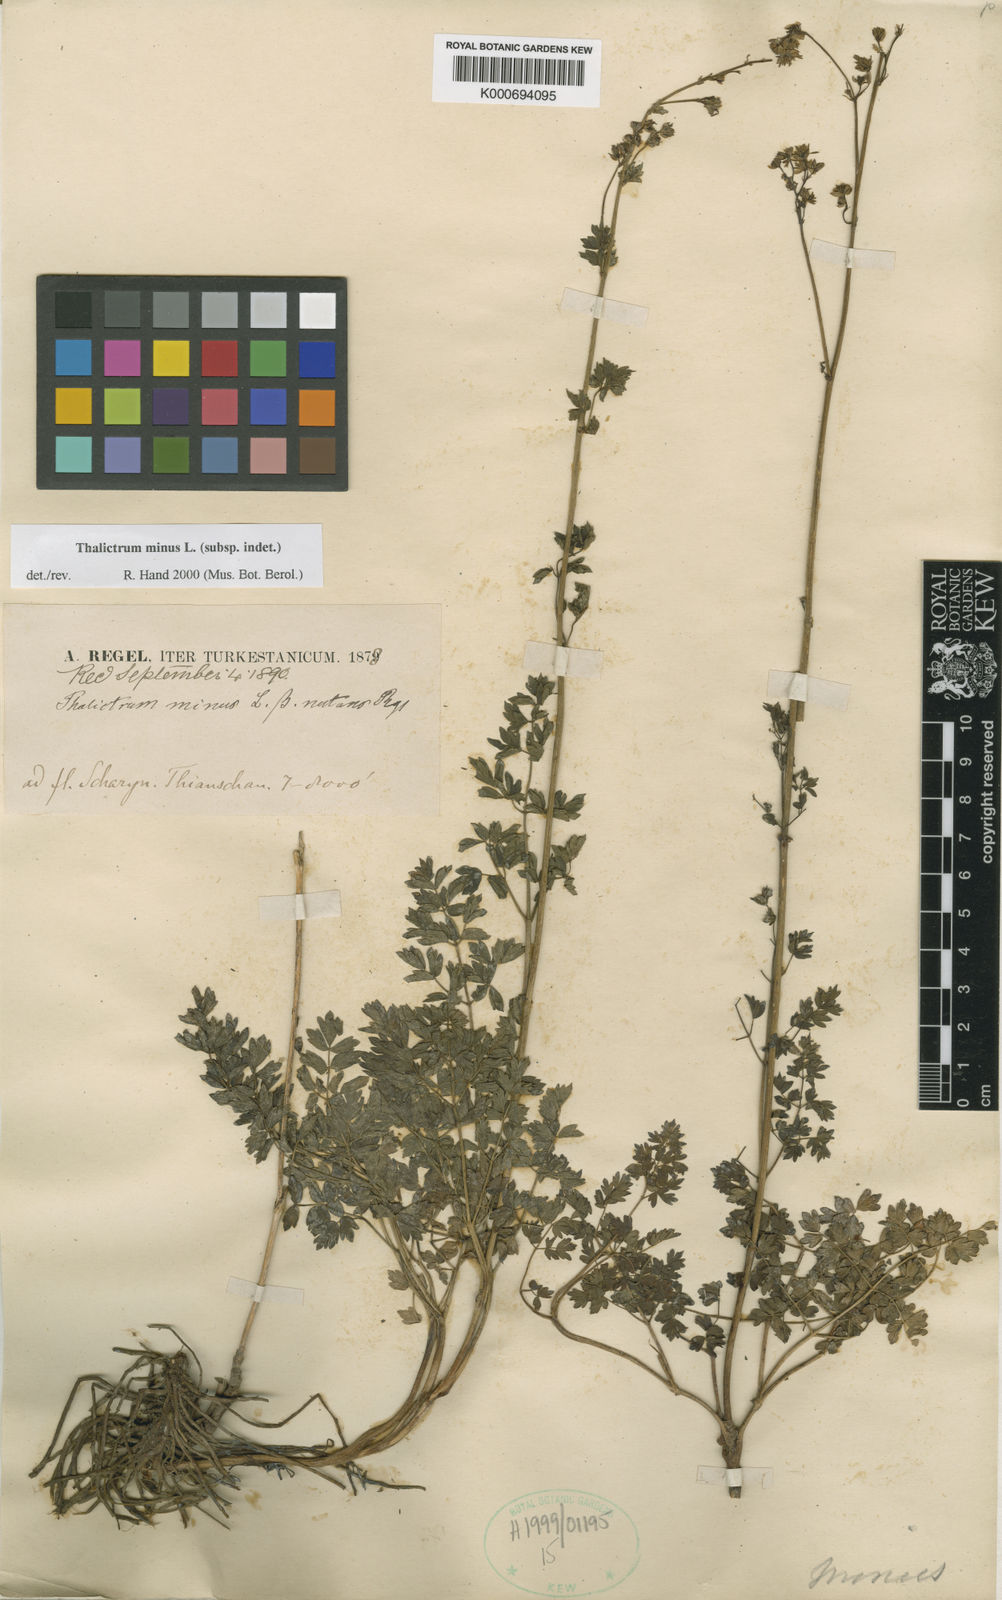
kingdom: Plantae
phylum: Tracheophyta
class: Magnoliopsida
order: Ranunculales
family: Ranunculaceae
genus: Thalictrum
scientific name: Thalictrum minus
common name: Lesser meadow-rue
